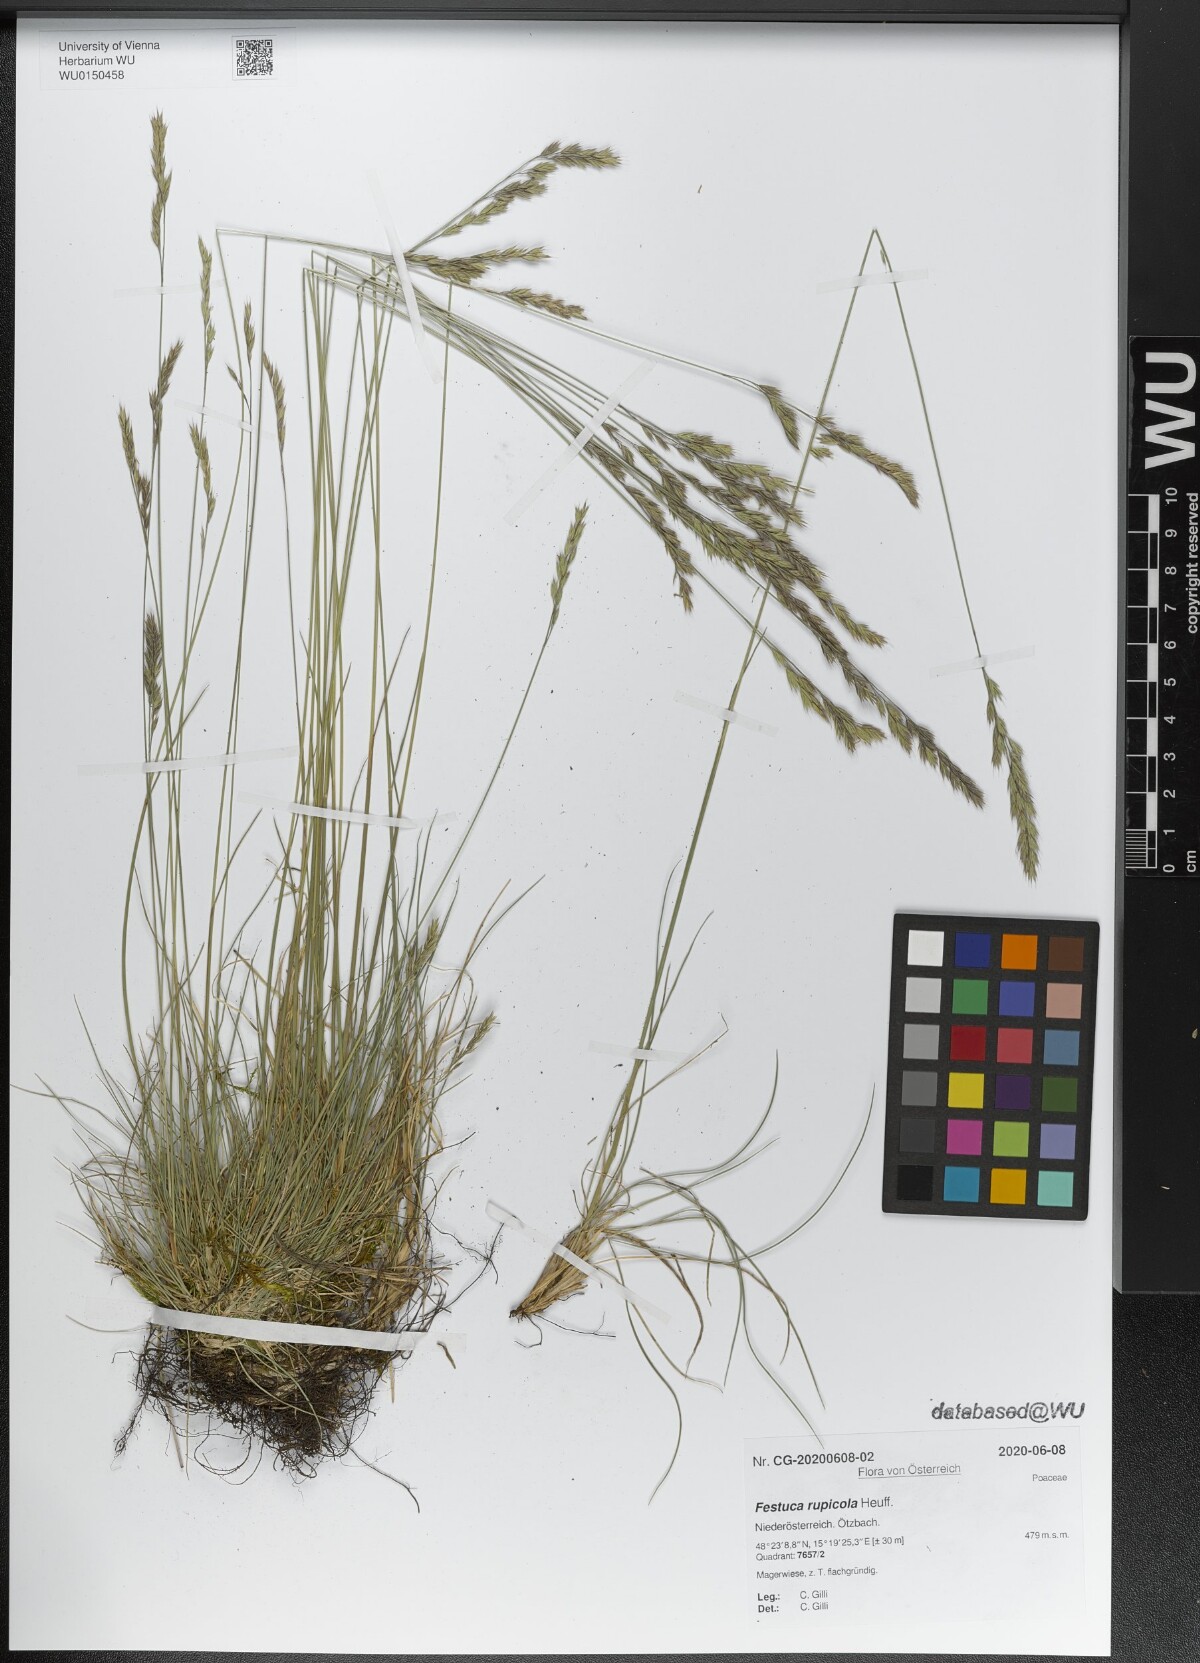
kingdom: Plantae
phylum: Tracheophyta
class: Liliopsida
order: Poales
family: Poaceae
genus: Festuca
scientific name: Festuca rupicola
